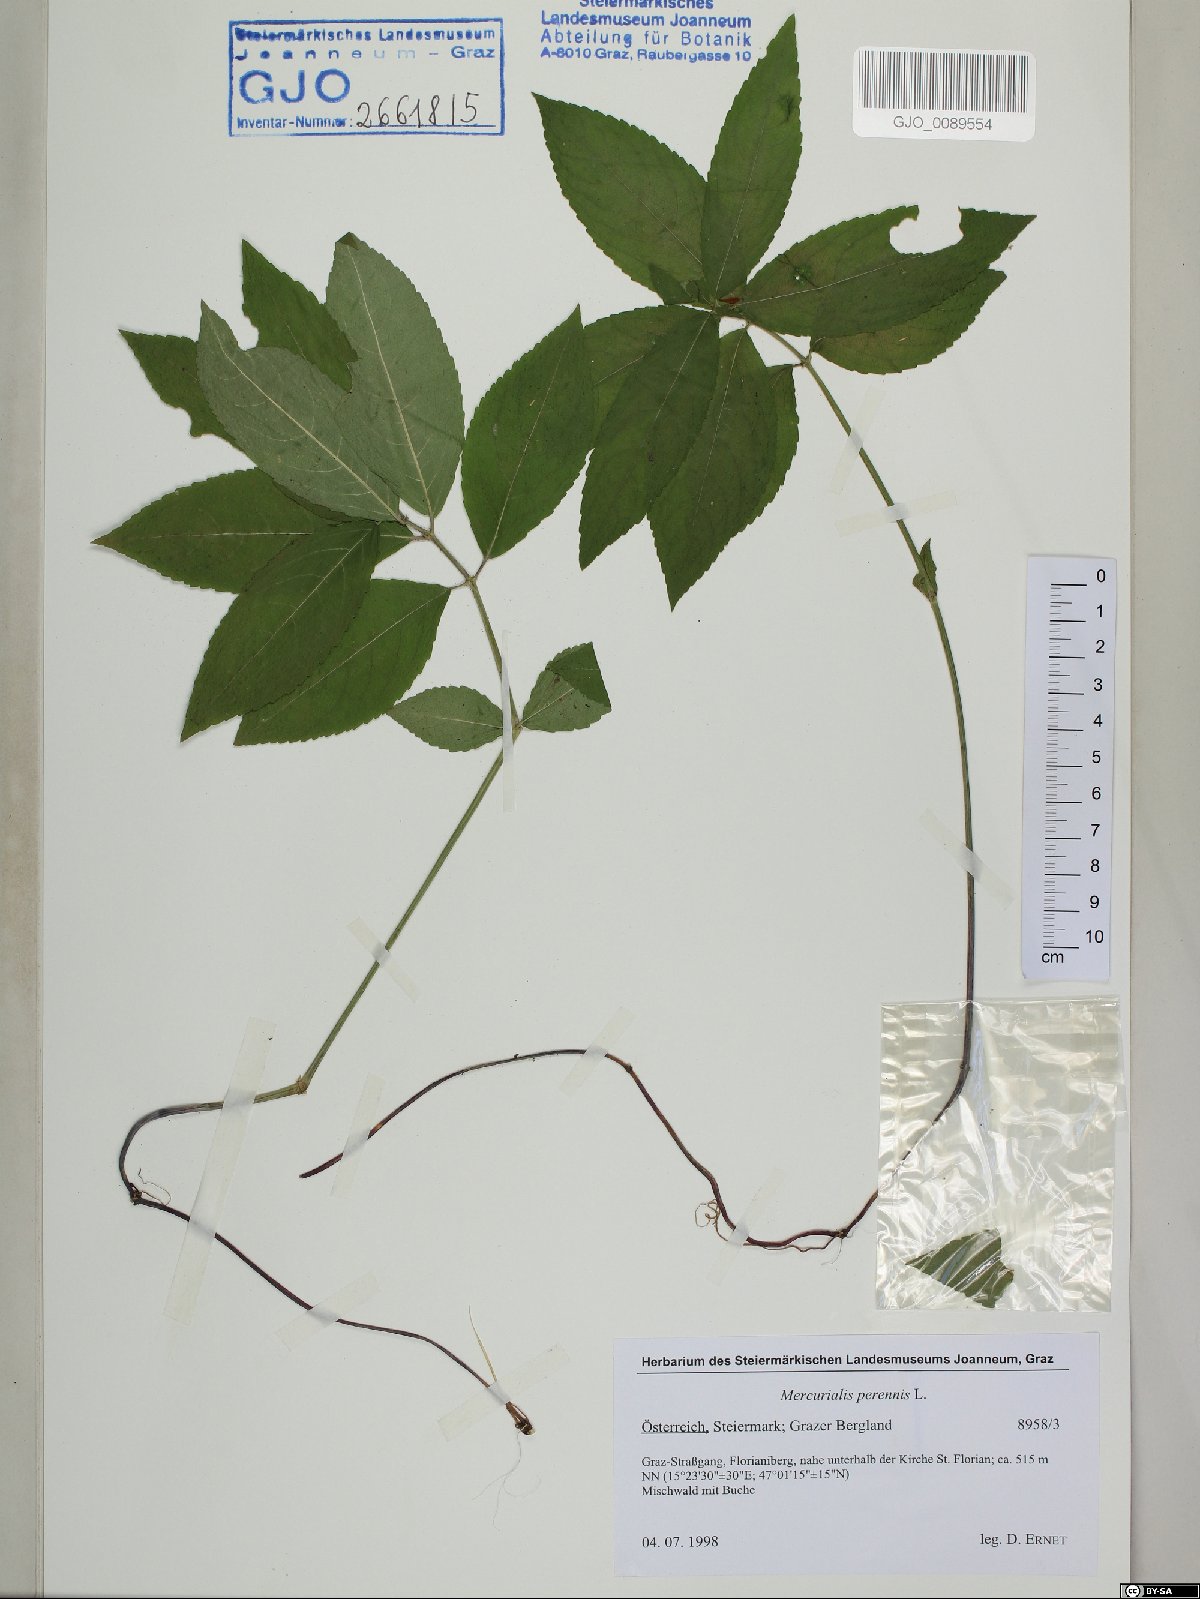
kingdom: Plantae
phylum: Tracheophyta
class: Magnoliopsida
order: Malpighiales
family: Euphorbiaceae
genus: Mercurialis
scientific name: Mercurialis perennis
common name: Dog mercury
